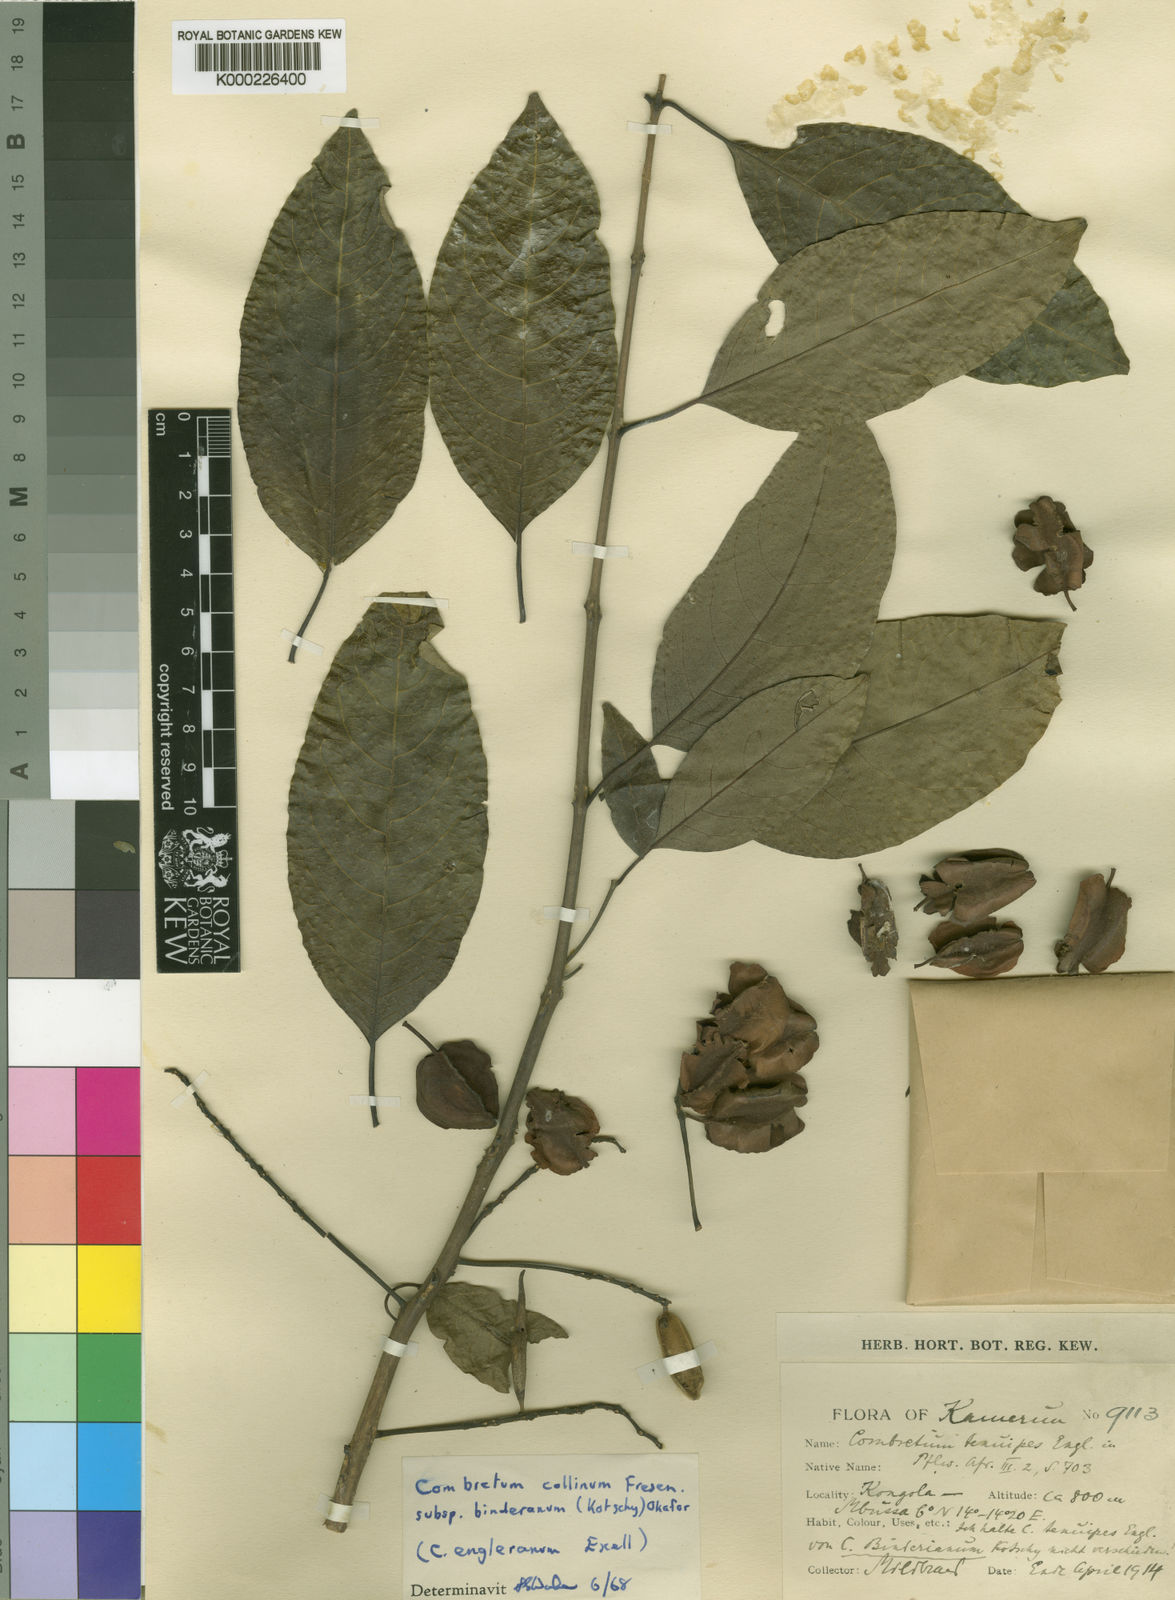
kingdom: Plantae
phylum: Tracheophyta
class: Magnoliopsida
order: Myrtales
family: Combretaceae
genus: Combretum
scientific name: Combretum collinum
